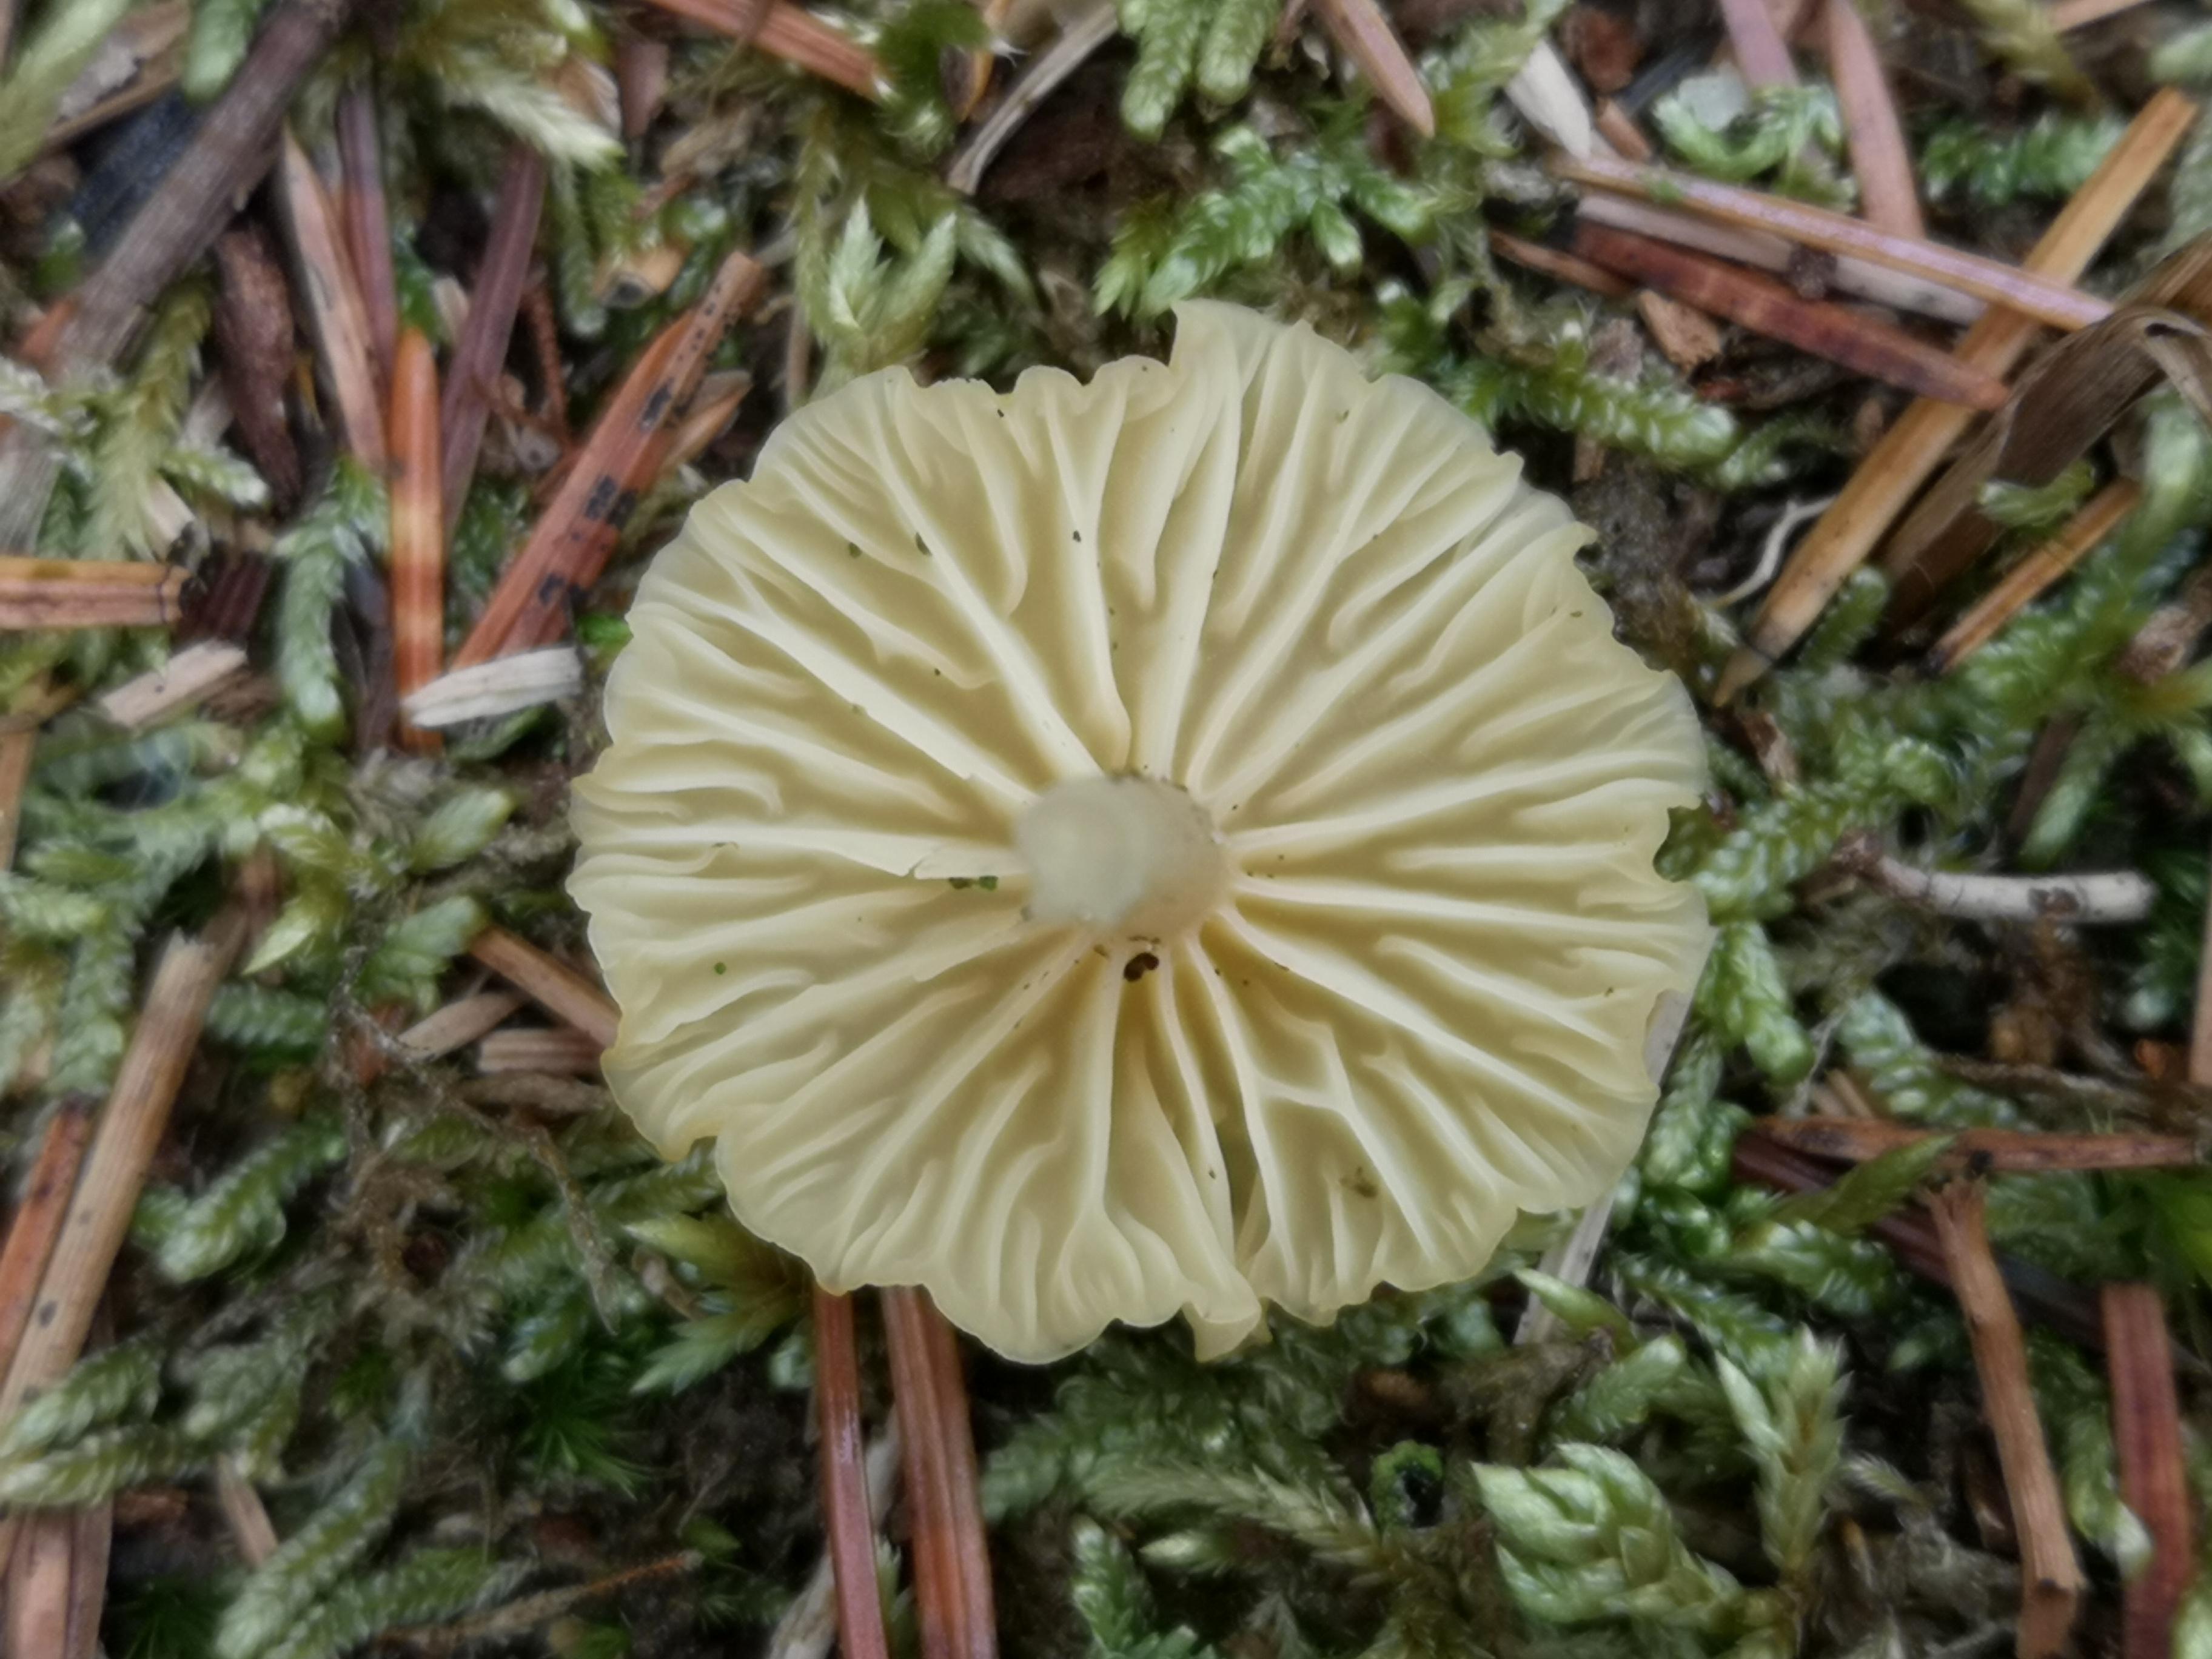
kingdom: Fungi
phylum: Basidiomycota
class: Agaricomycetes
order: Agaricales
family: Hygrophoraceae
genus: Lichenomphalia
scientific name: Lichenomphalia umbellifera
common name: tørve-lavhat
